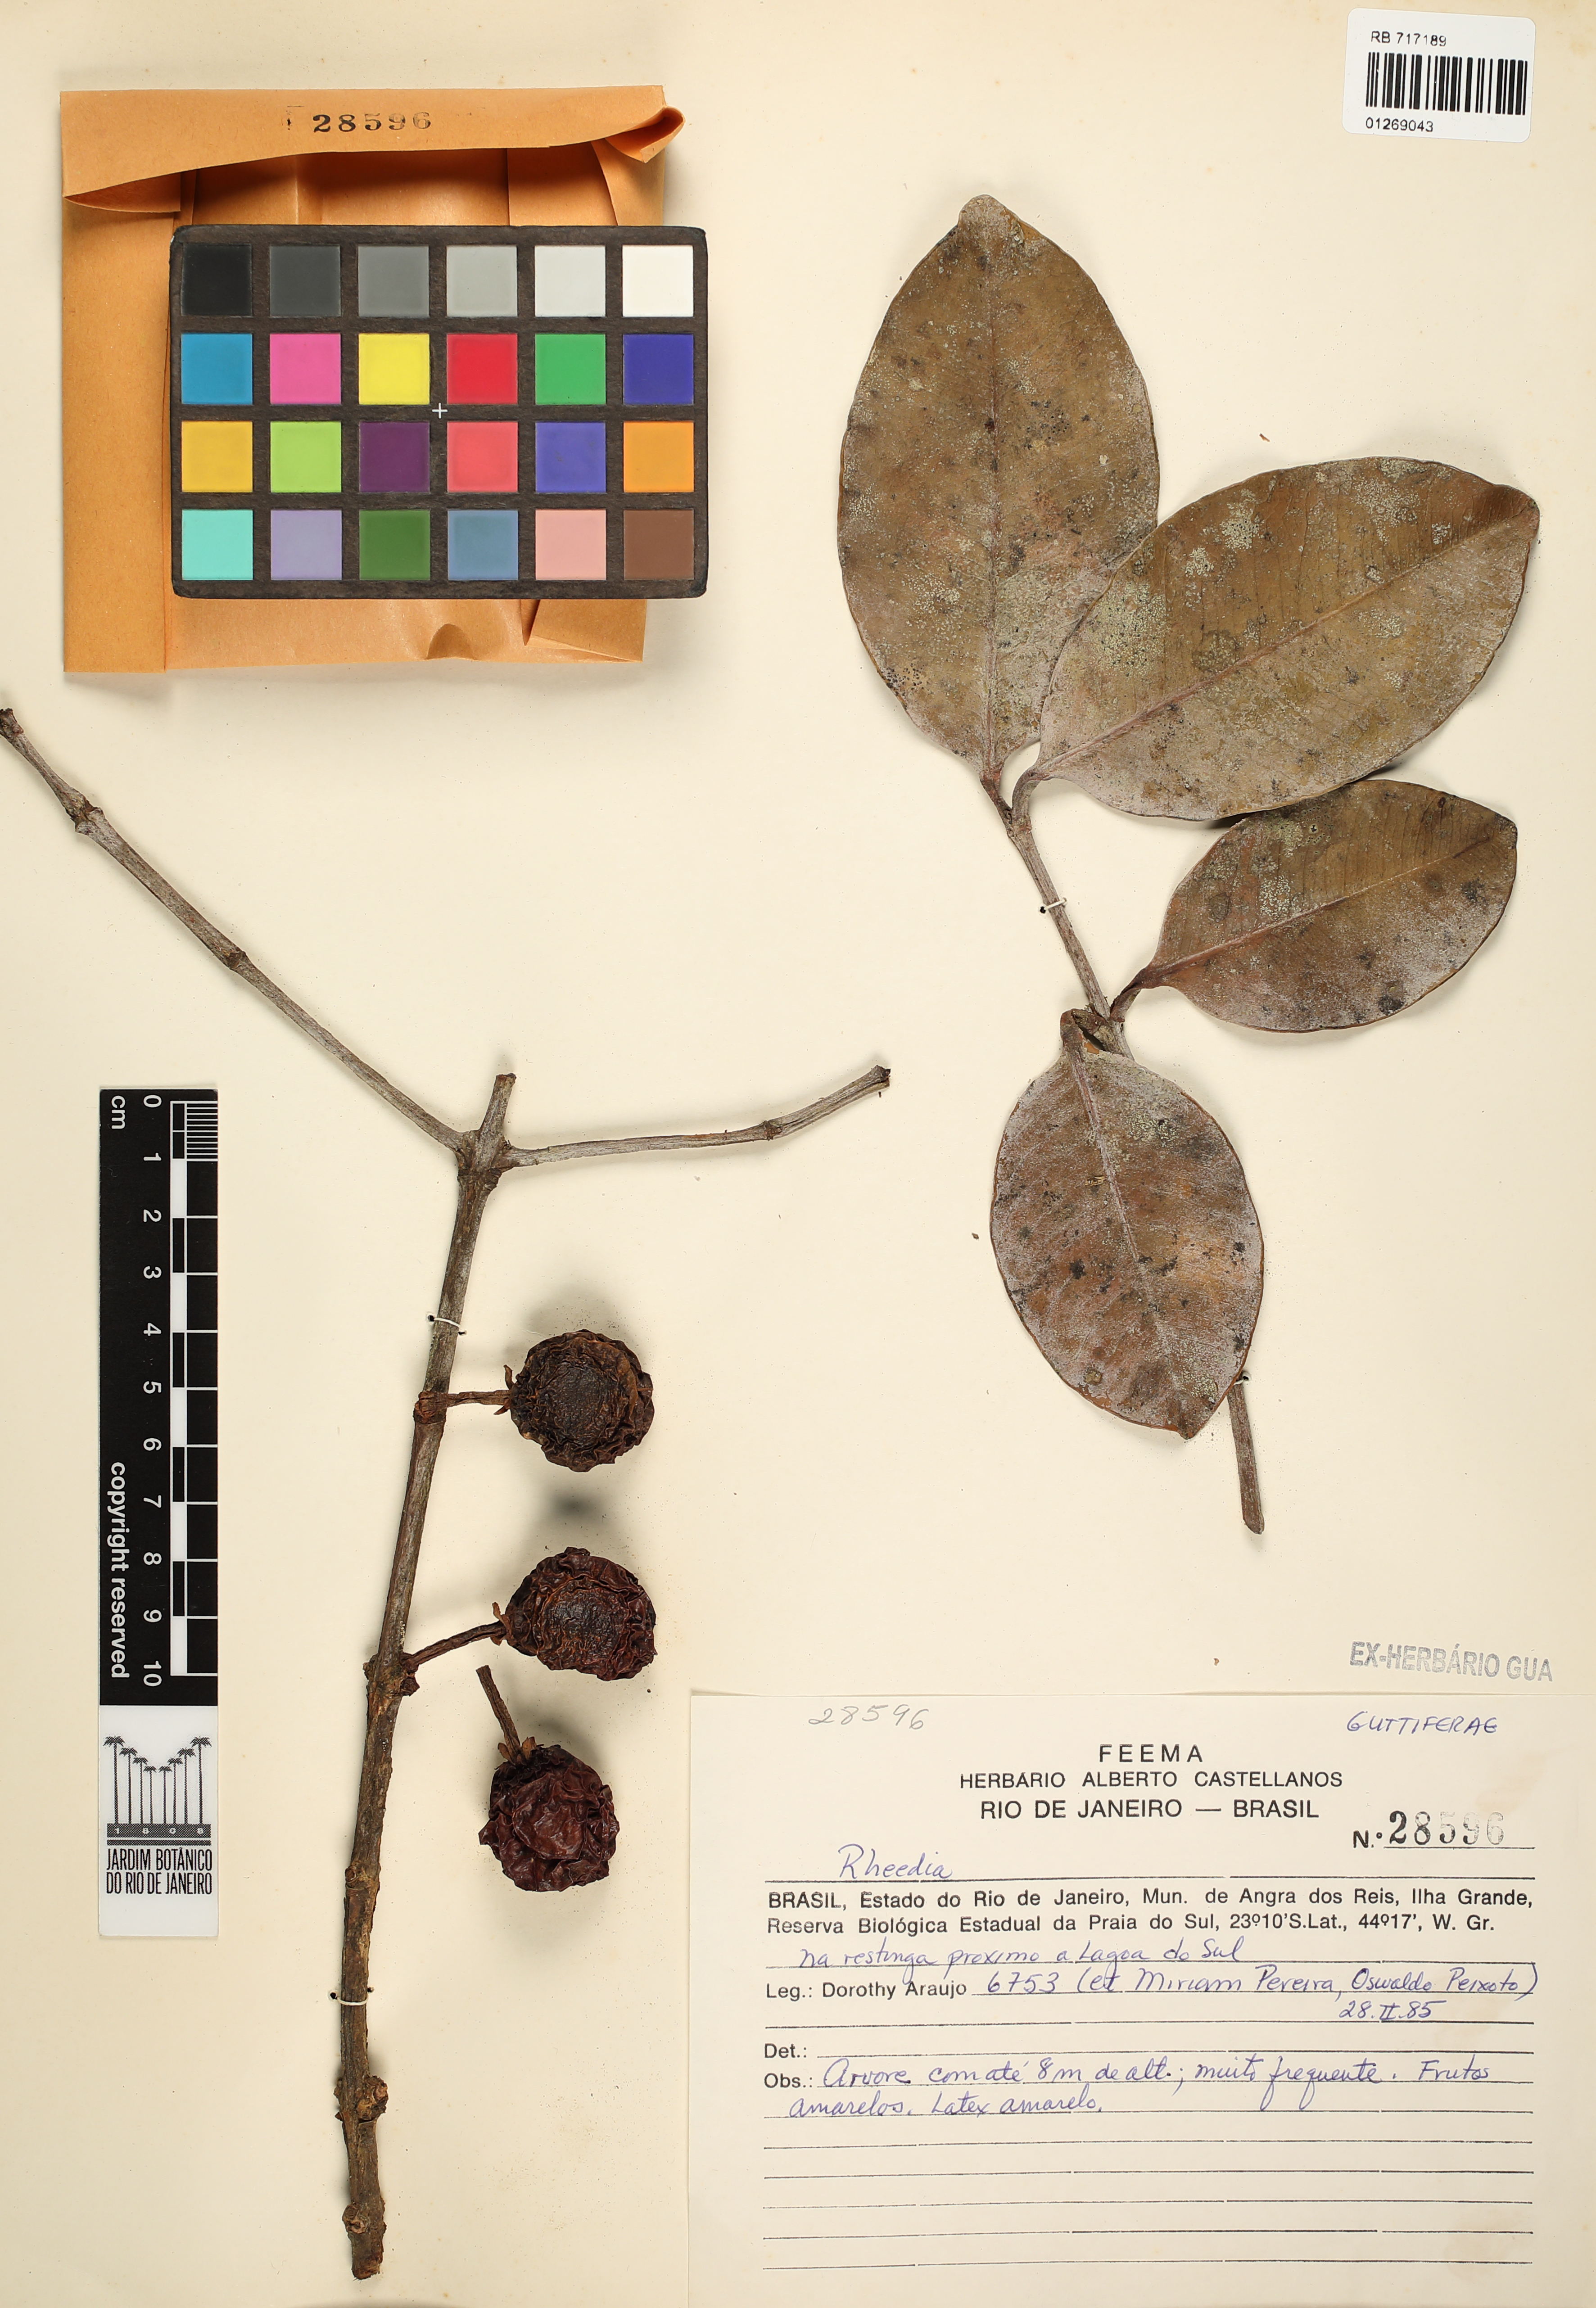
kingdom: Plantae
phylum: Tracheophyta
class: Magnoliopsida
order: Malpighiales
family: Clusiaceae
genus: Garcinia
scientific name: Garcinia
